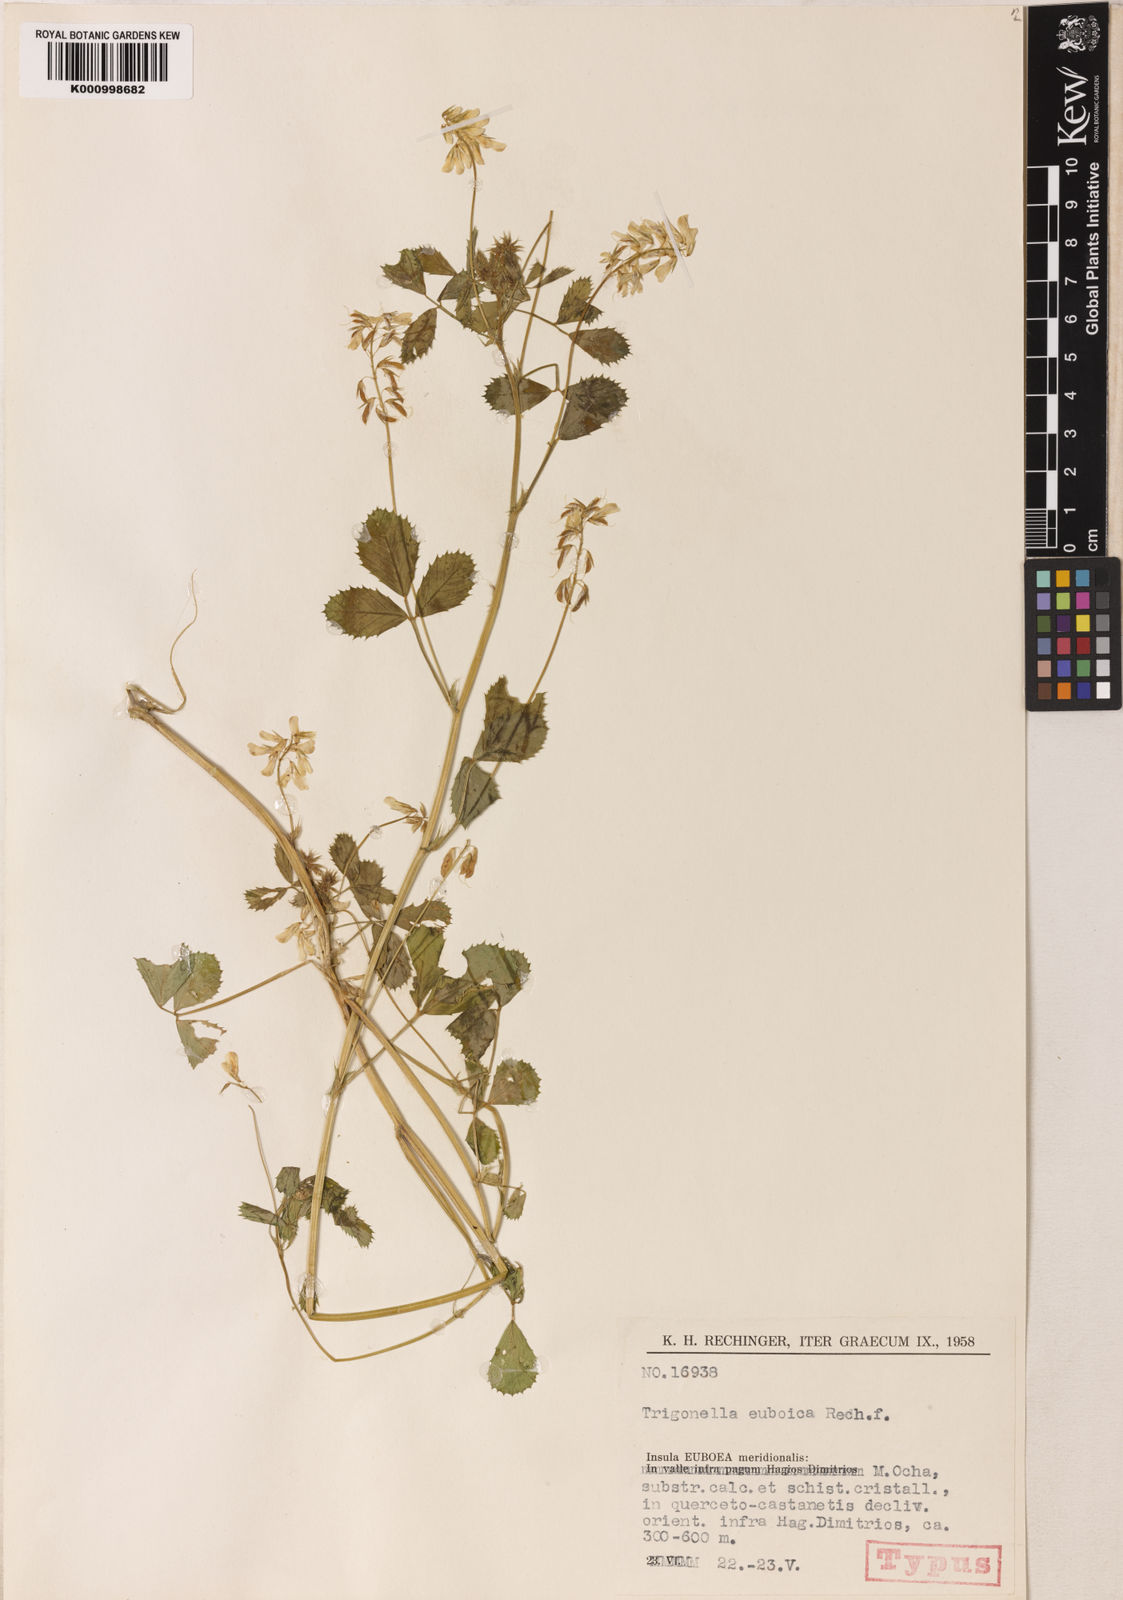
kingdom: Plantae
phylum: Tracheophyta
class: Magnoliopsida
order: Fabales
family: Fabaceae
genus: Trigonella
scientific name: Trigonella balansae
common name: Sickle-fruited fenugreek
